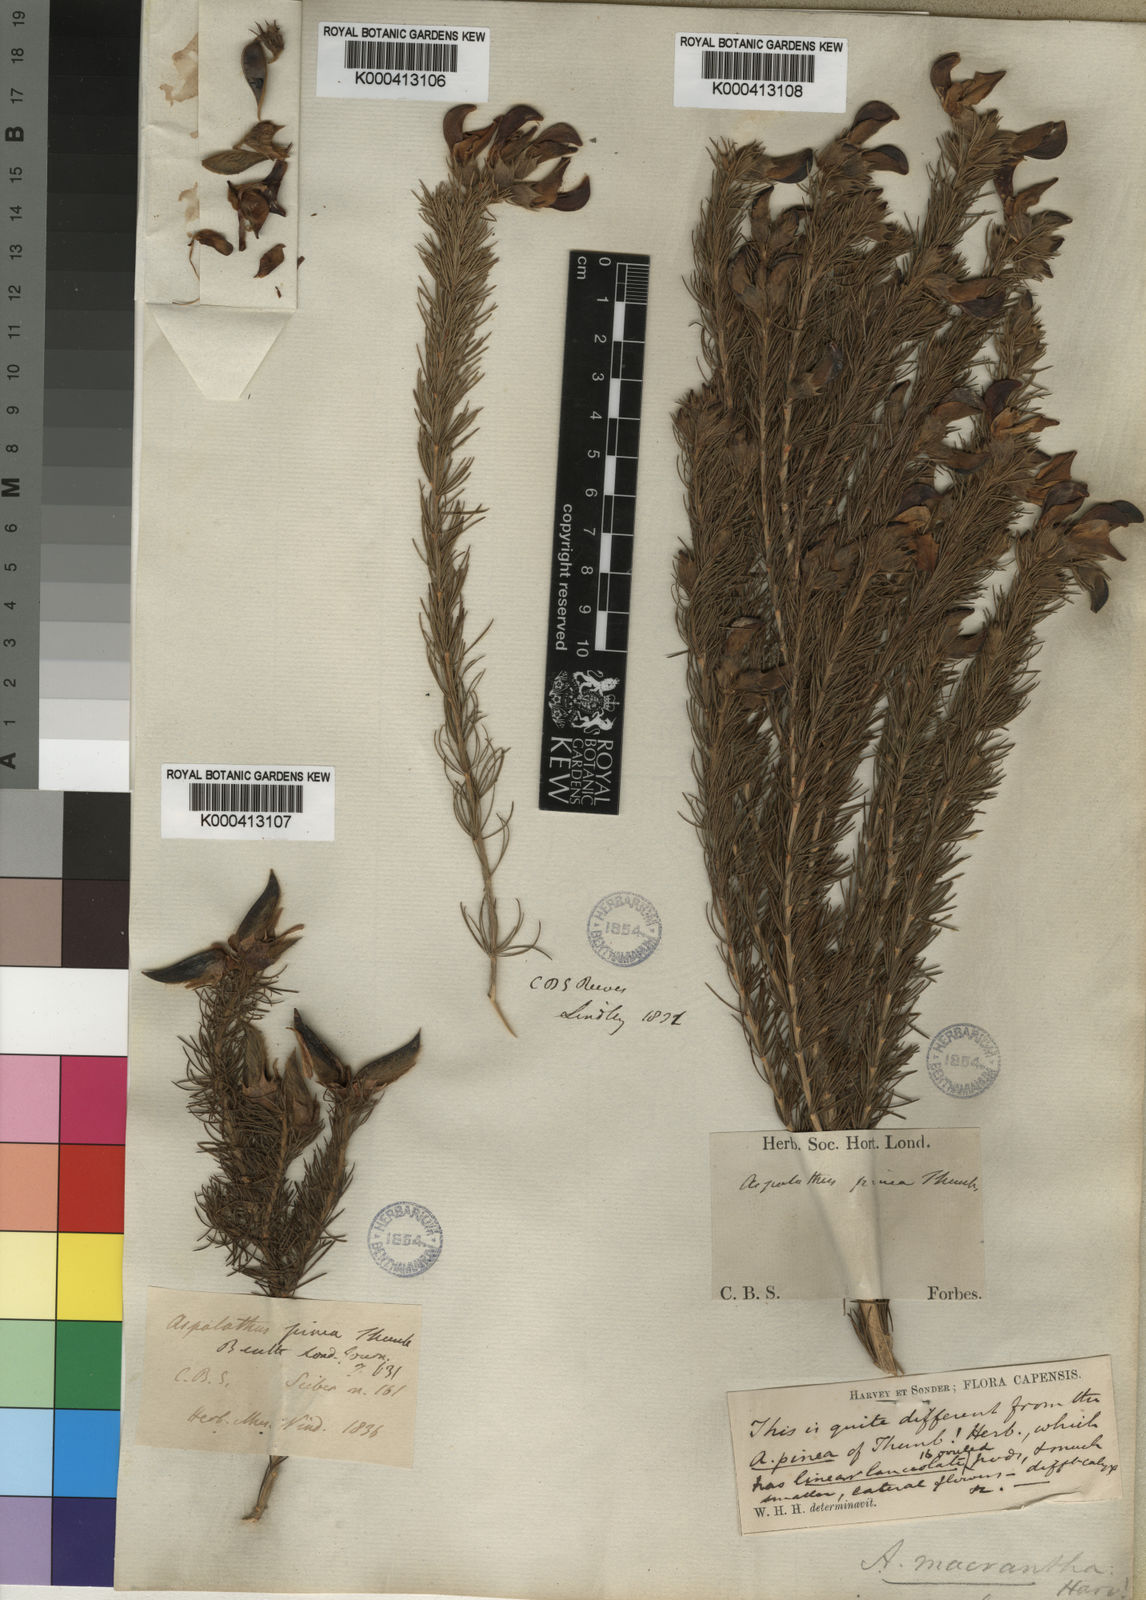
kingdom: Plantae
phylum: Tracheophyta
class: Magnoliopsida
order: Fabales
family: Fabaceae
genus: Aspalathus
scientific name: Aspalathus macrantha
